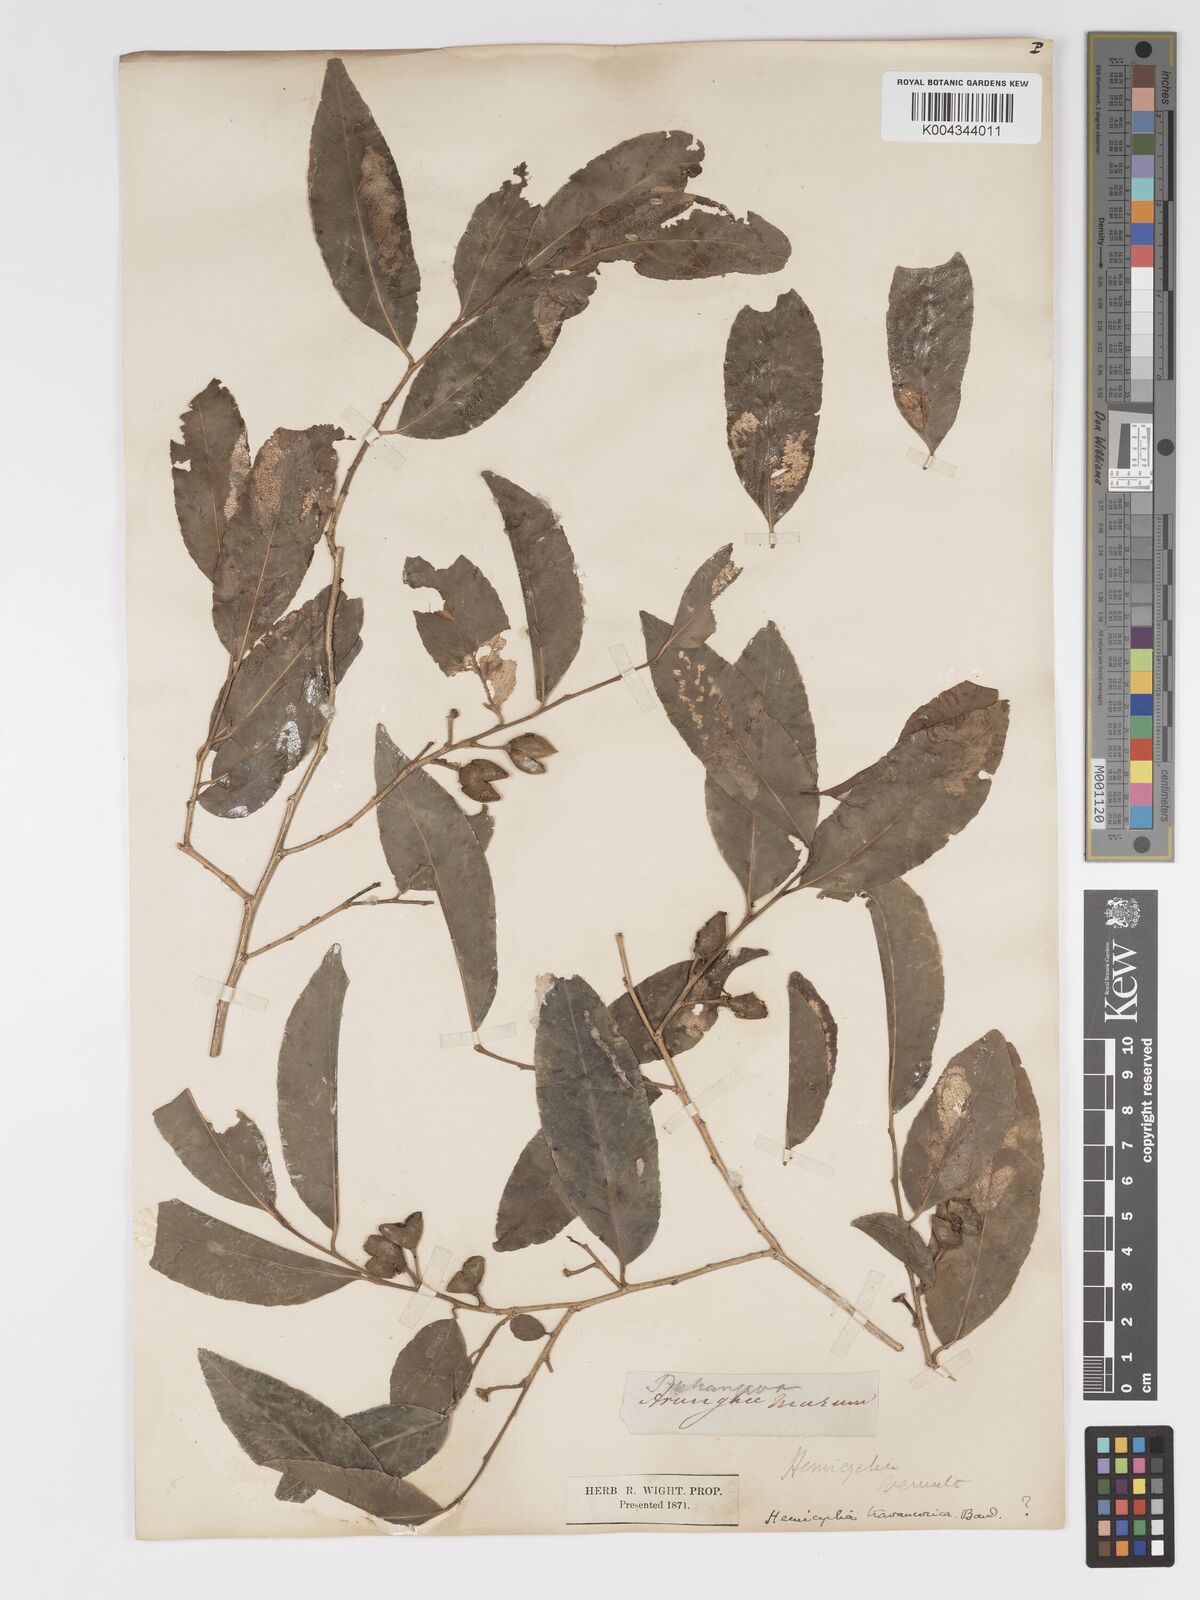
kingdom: Plantae
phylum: Tracheophyta
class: Magnoliopsida
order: Malpighiales
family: Putranjivaceae
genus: Putranjiva
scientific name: Putranjiva roxburghii
